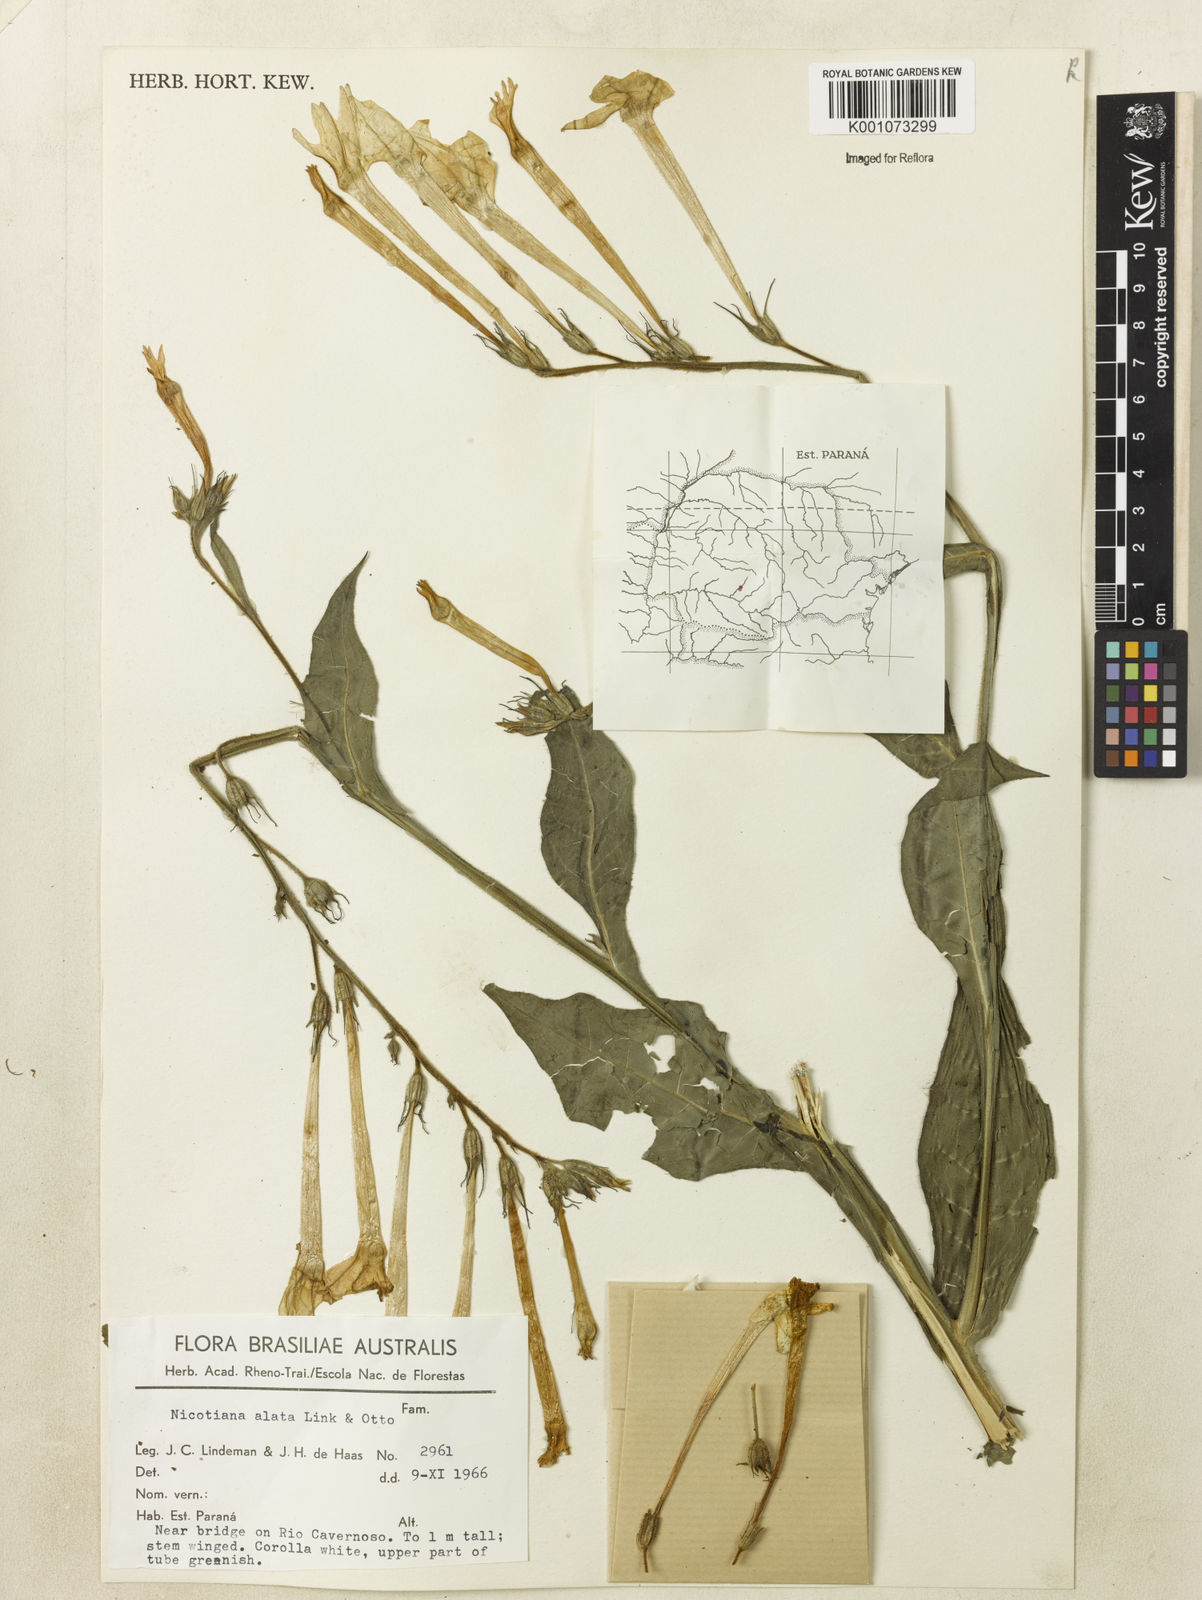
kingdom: Plantae
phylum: Tracheophyta
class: Magnoliopsida
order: Solanales
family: Solanaceae
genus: Nicotiana
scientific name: Nicotiana alata
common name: Jasmine tobacco
